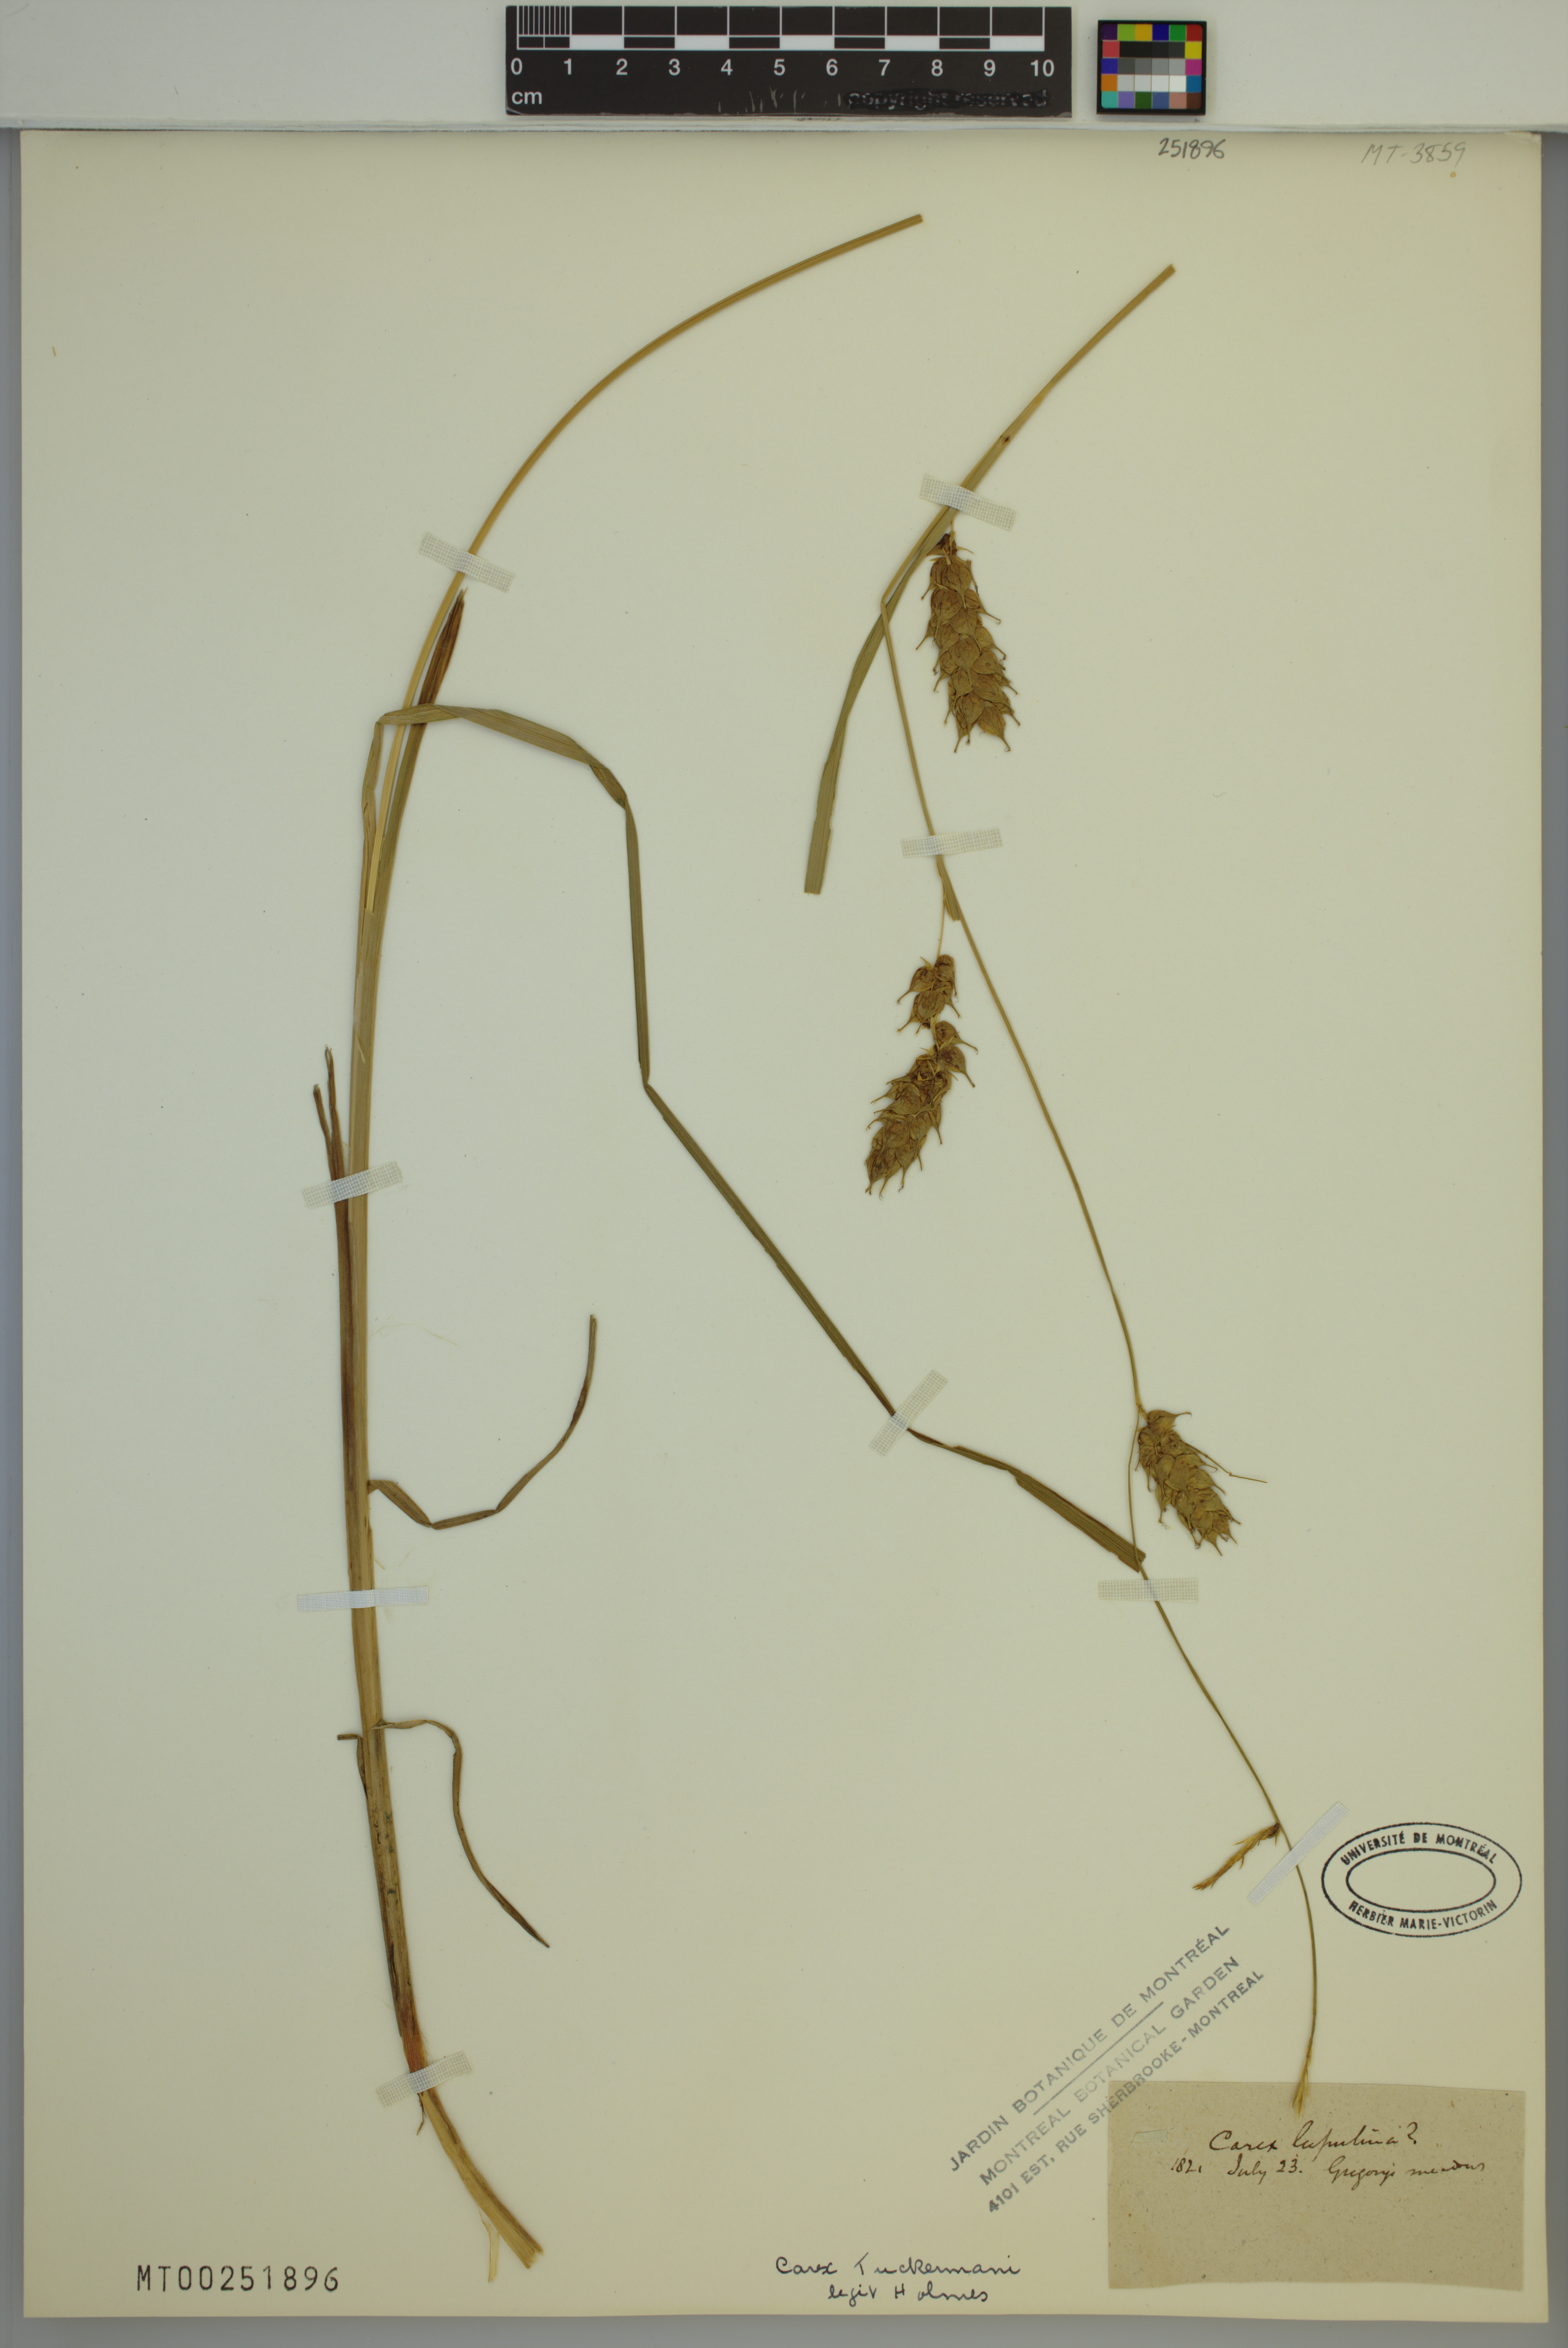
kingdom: Plantae
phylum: Tracheophyta
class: Liliopsida
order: Poales
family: Cyperaceae
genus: Carex
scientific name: Carex tuckermanii
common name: Tuckerman's sedge
